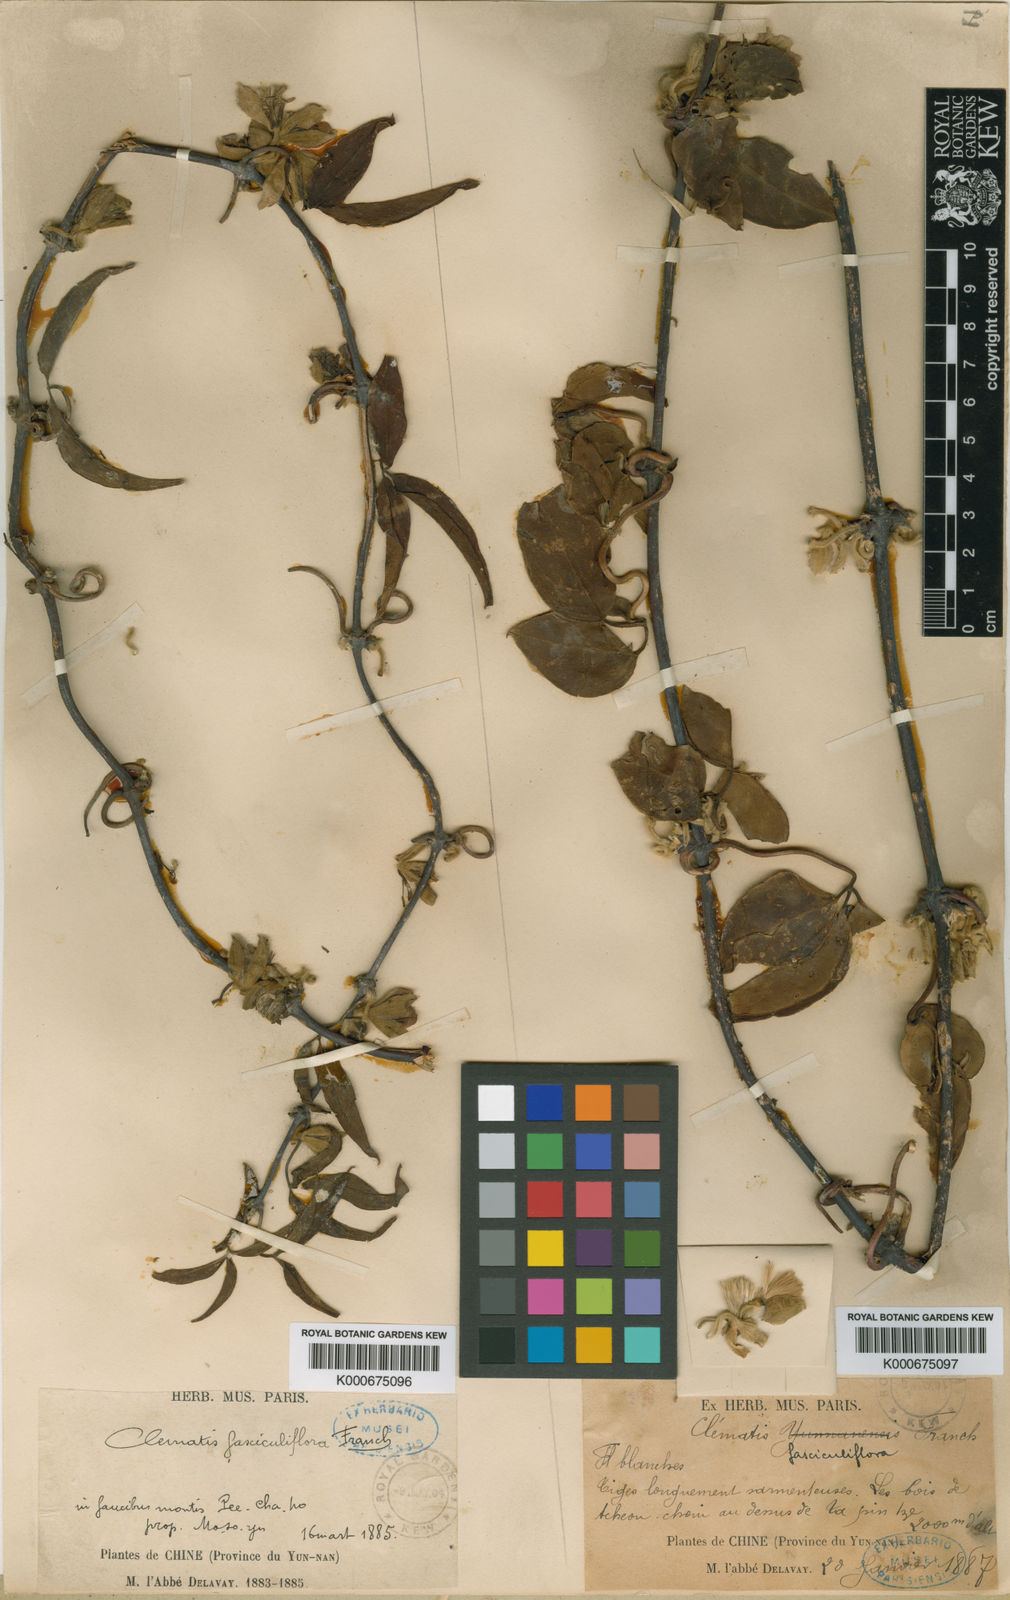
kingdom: Plantae
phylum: Tracheophyta
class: Magnoliopsida
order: Ranunculales
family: Ranunculaceae
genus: Clematis
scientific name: Clematis fasciculiflora
